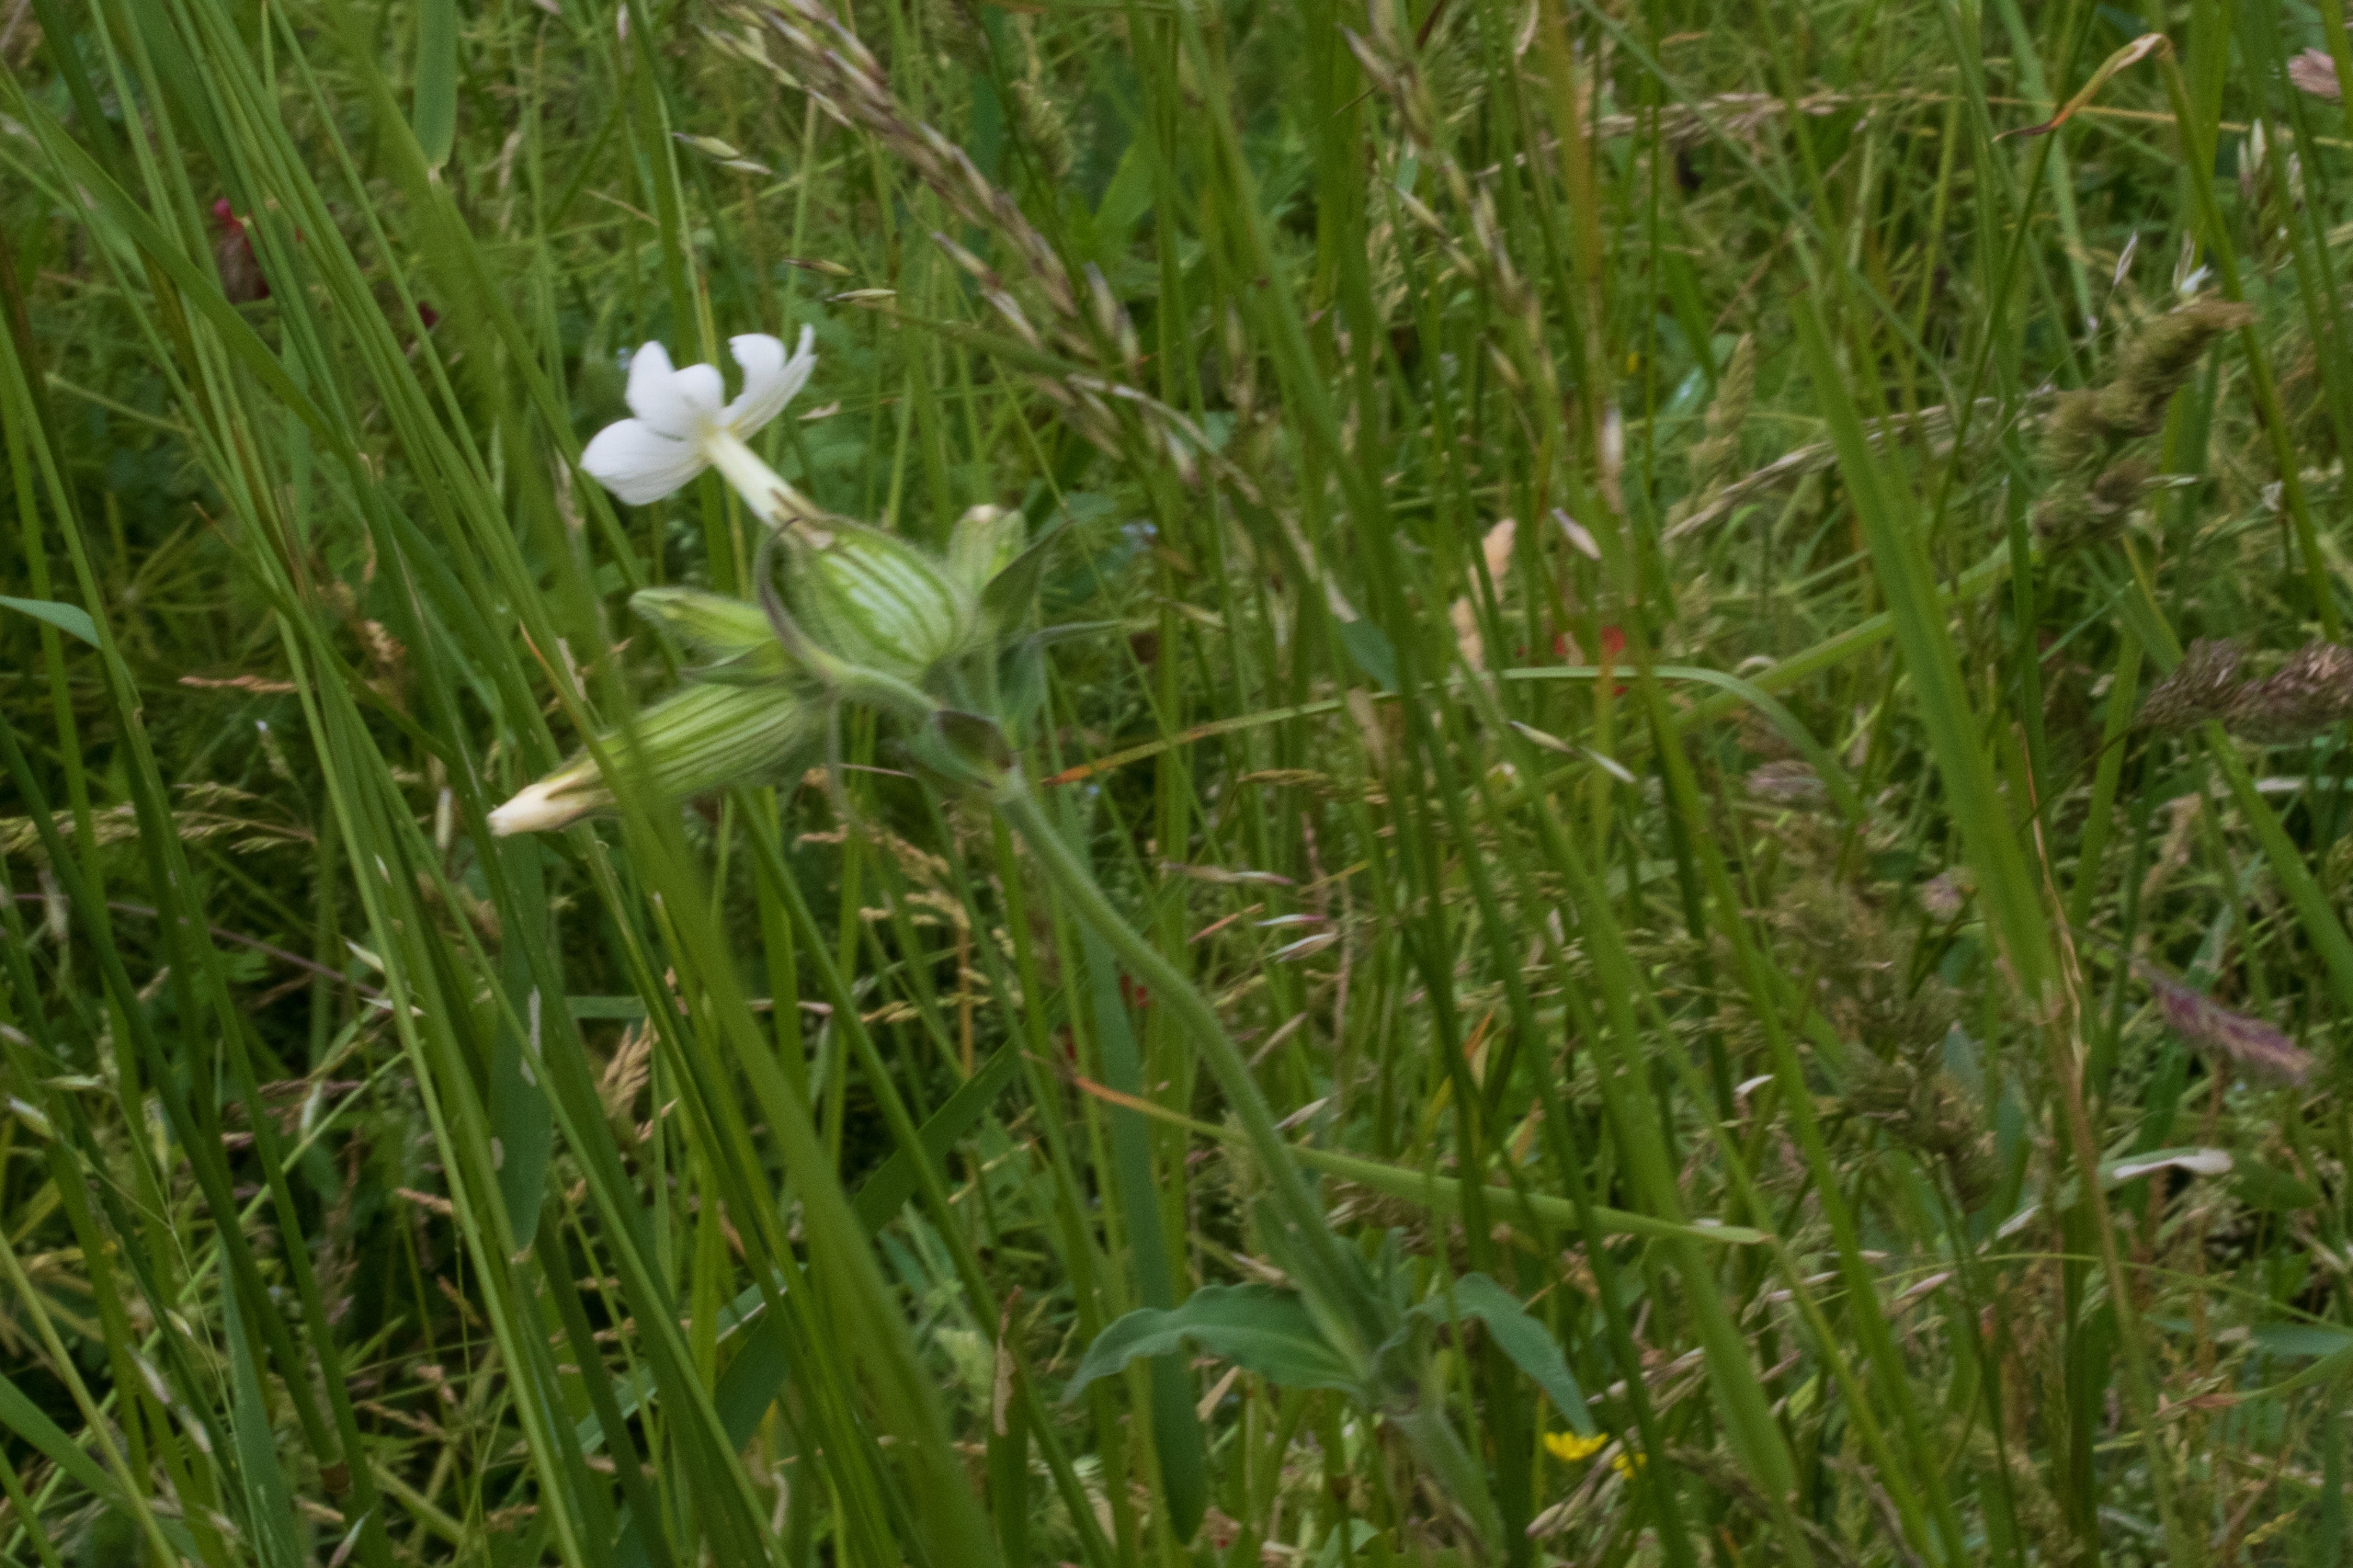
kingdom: Plantae
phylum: Tracheophyta
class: Magnoliopsida
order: Caryophyllales
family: Caryophyllaceae
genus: Silene
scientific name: Silene latifolia
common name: Aftenpragtstjerne
